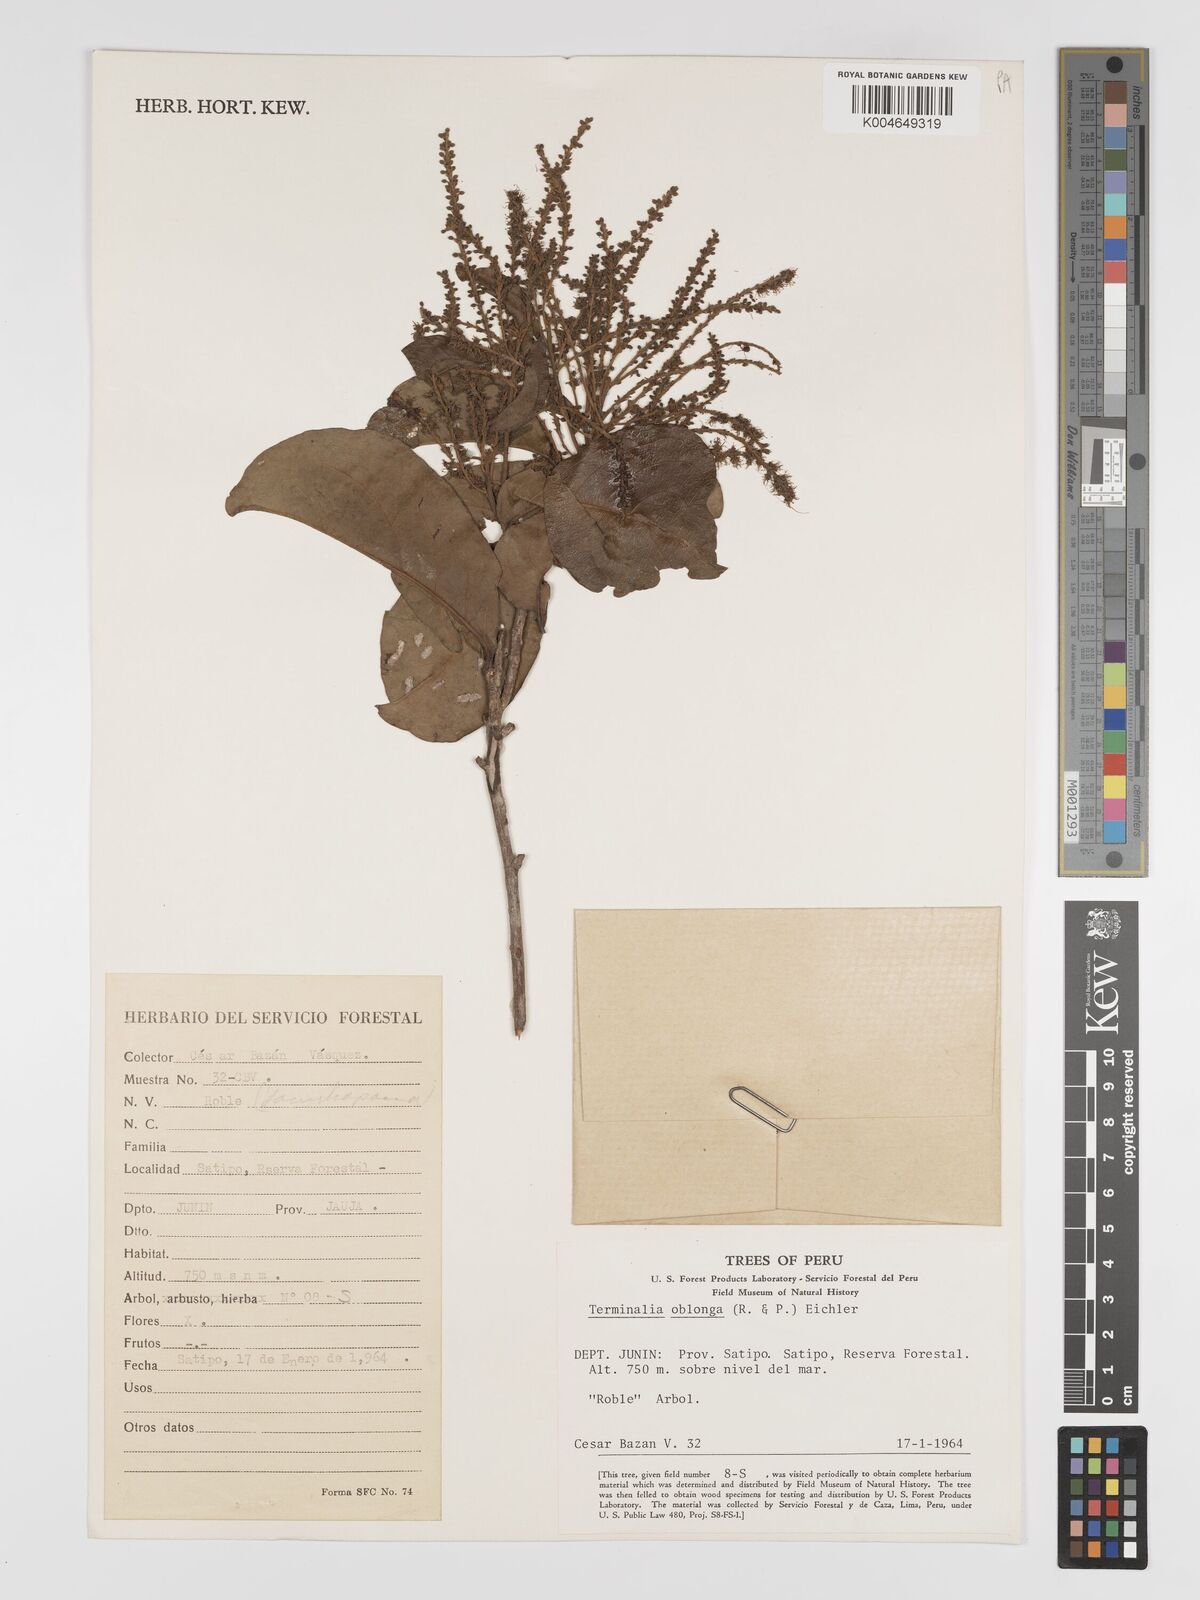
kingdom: Plantae
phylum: Tracheophyta
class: Magnoliopsida
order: Myrtales
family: Combretaceae
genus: Terminalia
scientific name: Terminalia oblonga
